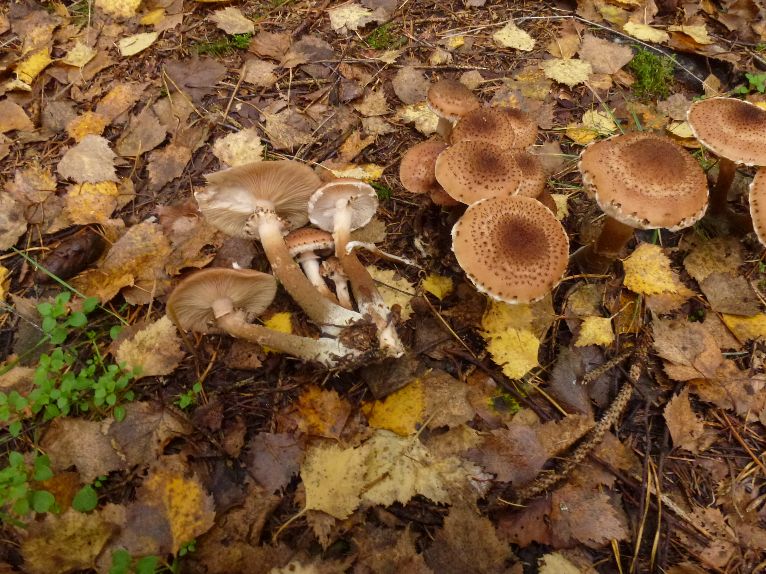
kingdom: Fungi
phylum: Basidiomycota
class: Agaricomycetes
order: Agaricales
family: Physalacriaceae
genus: Armillaria
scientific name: Armillaria ostoyae
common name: mørk honningsvamp
